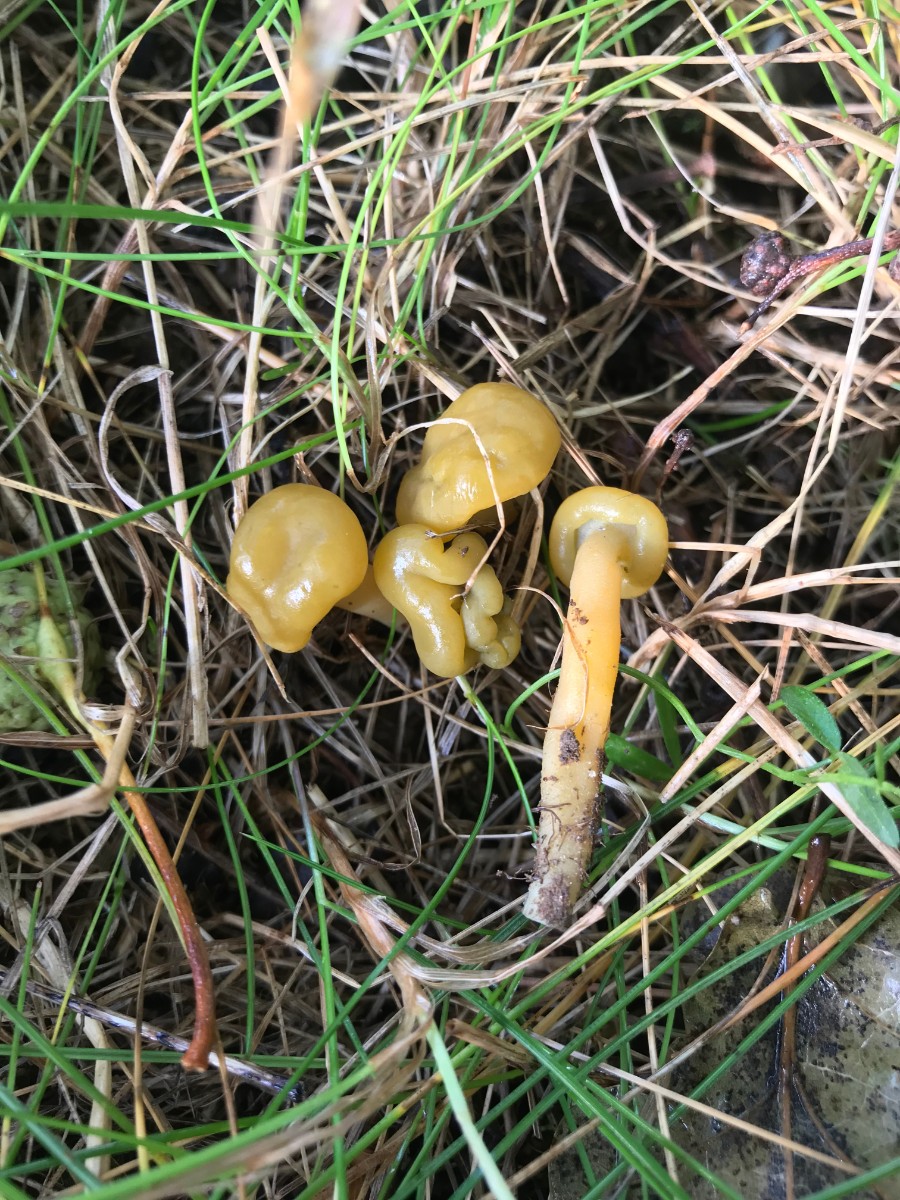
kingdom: Fungi
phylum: Ascomycota
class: Leotiomycetes
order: Leotiales
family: Leotiaceae
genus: Leotia
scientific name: Leotia lubrica
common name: ravsvamp
